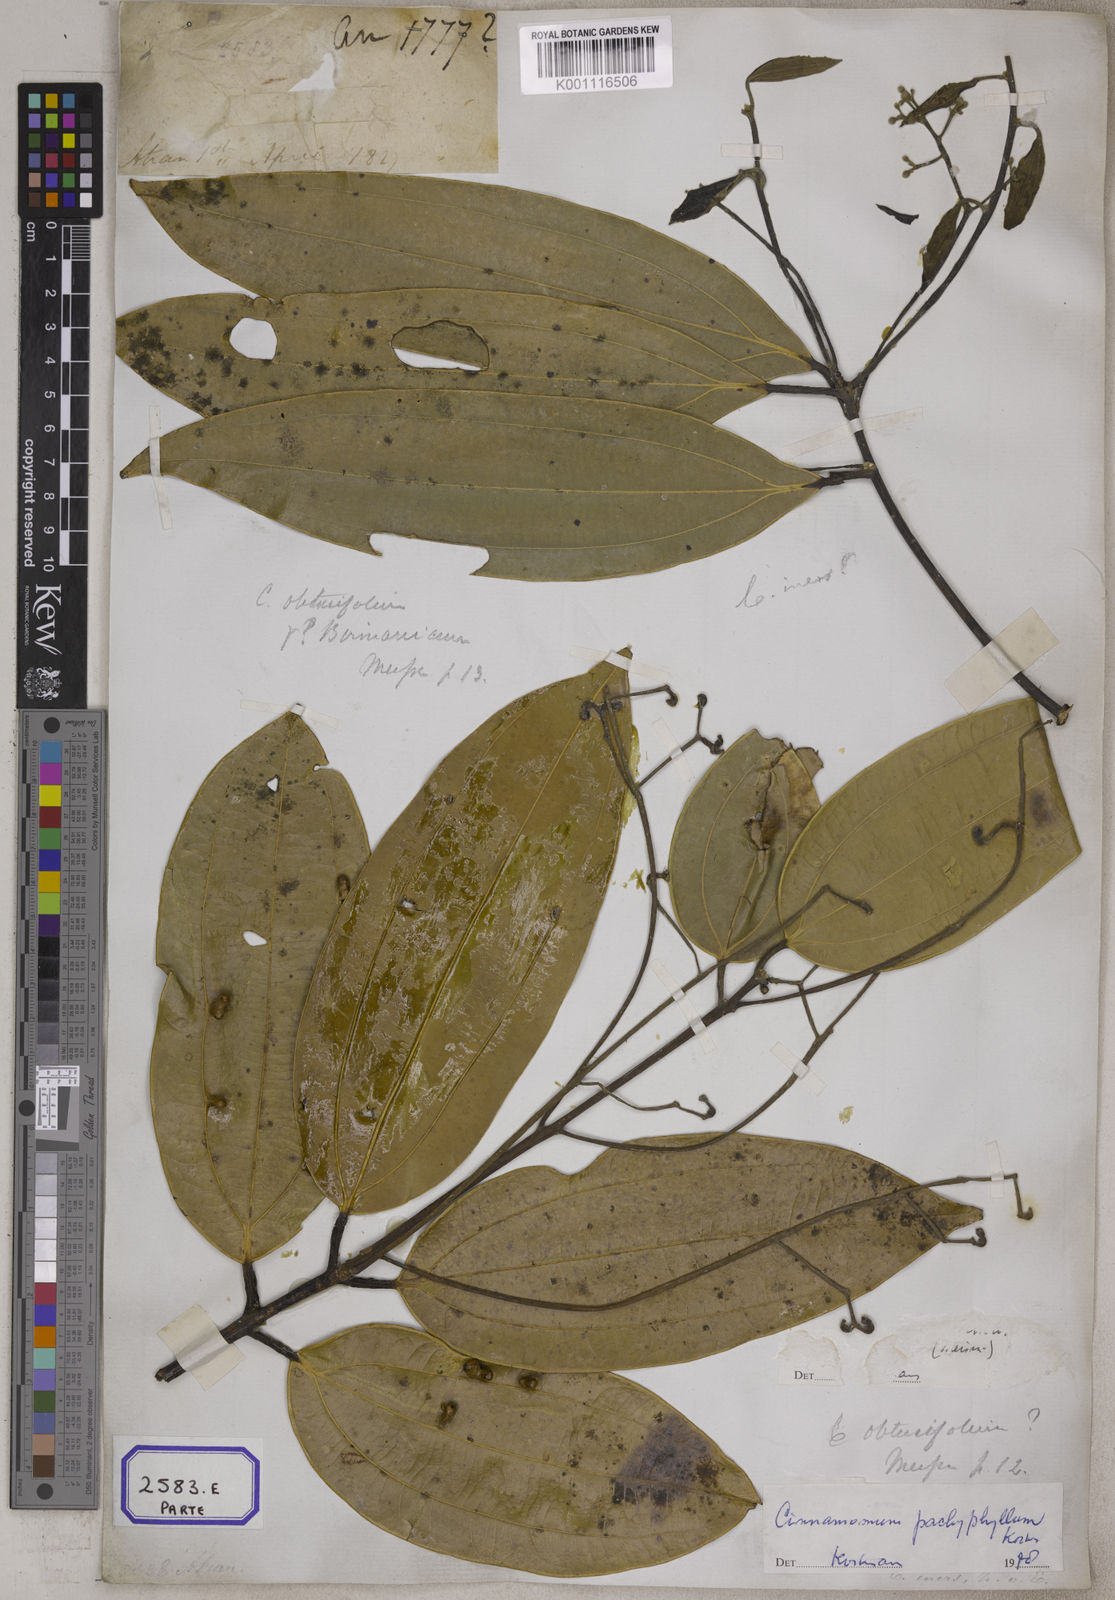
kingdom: Plantae
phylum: Tracheophyta
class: Magnoliopsida
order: Laurales
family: Lauraceae
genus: Cinnamomum
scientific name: Cinnamomum
